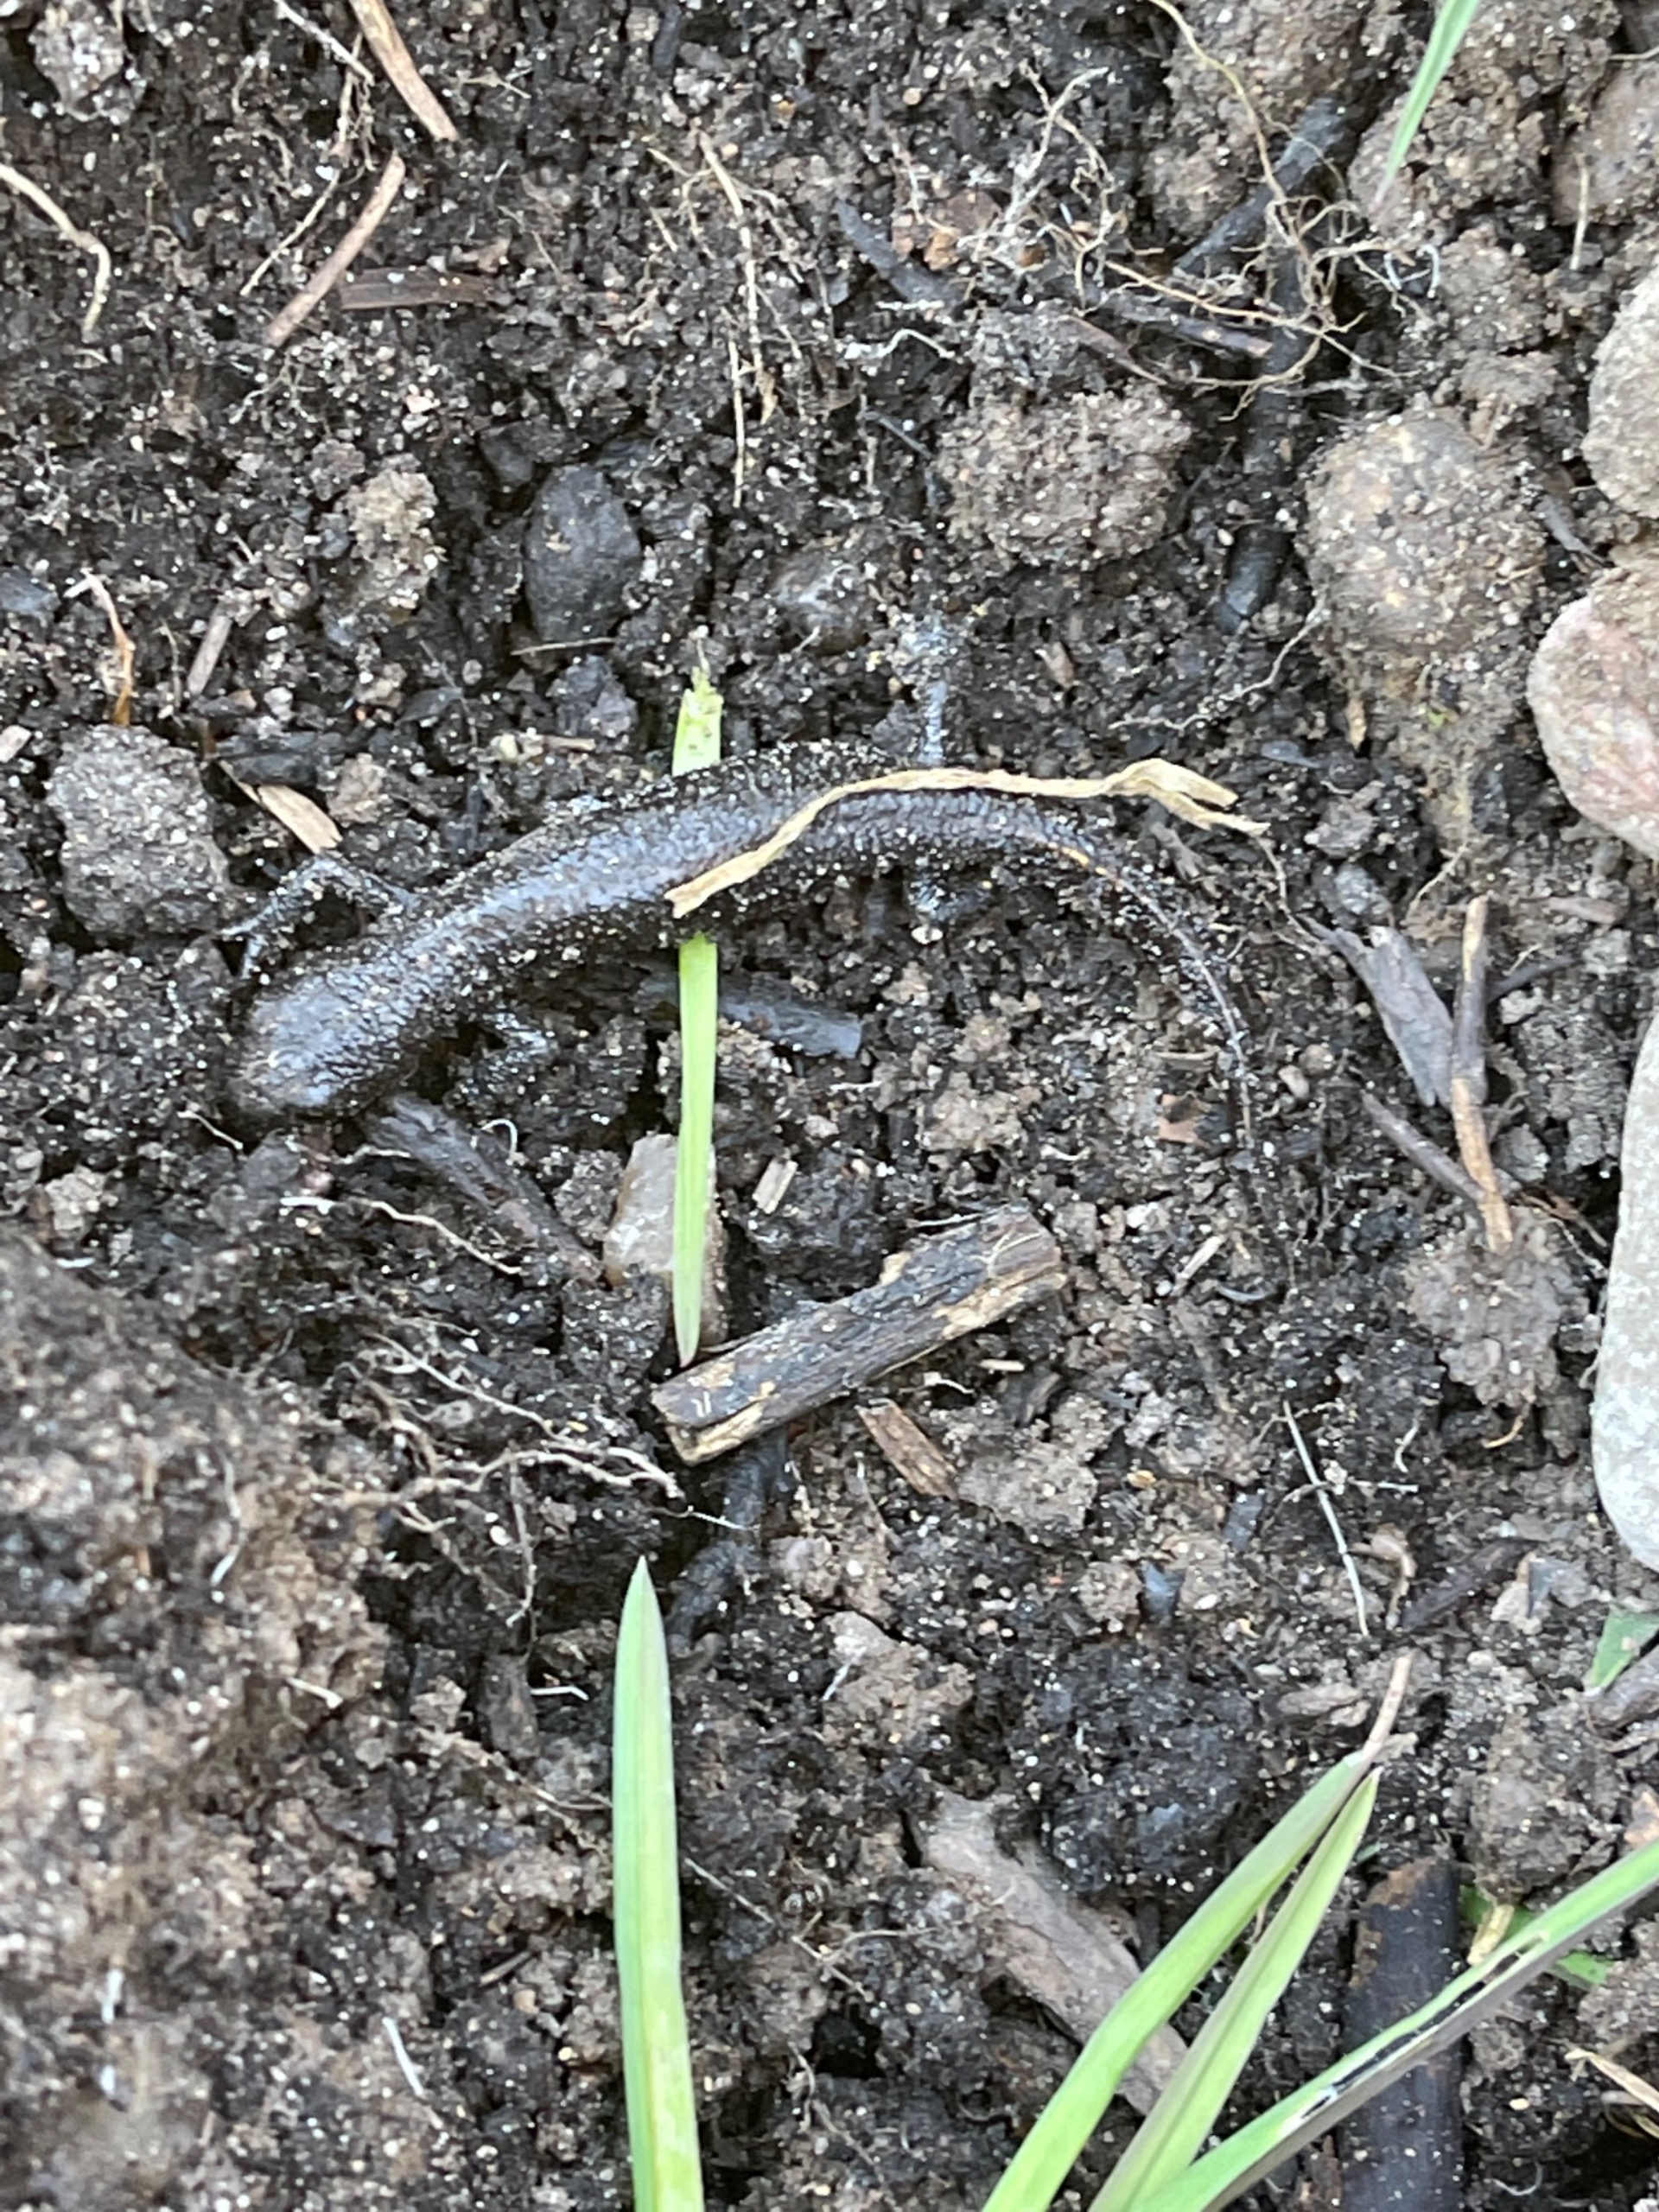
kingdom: Animalia
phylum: Chordata
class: Amphibia
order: Caudata
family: Salamandridae
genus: Triturus
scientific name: Triturus cristatus
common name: Stor vandsalamander
